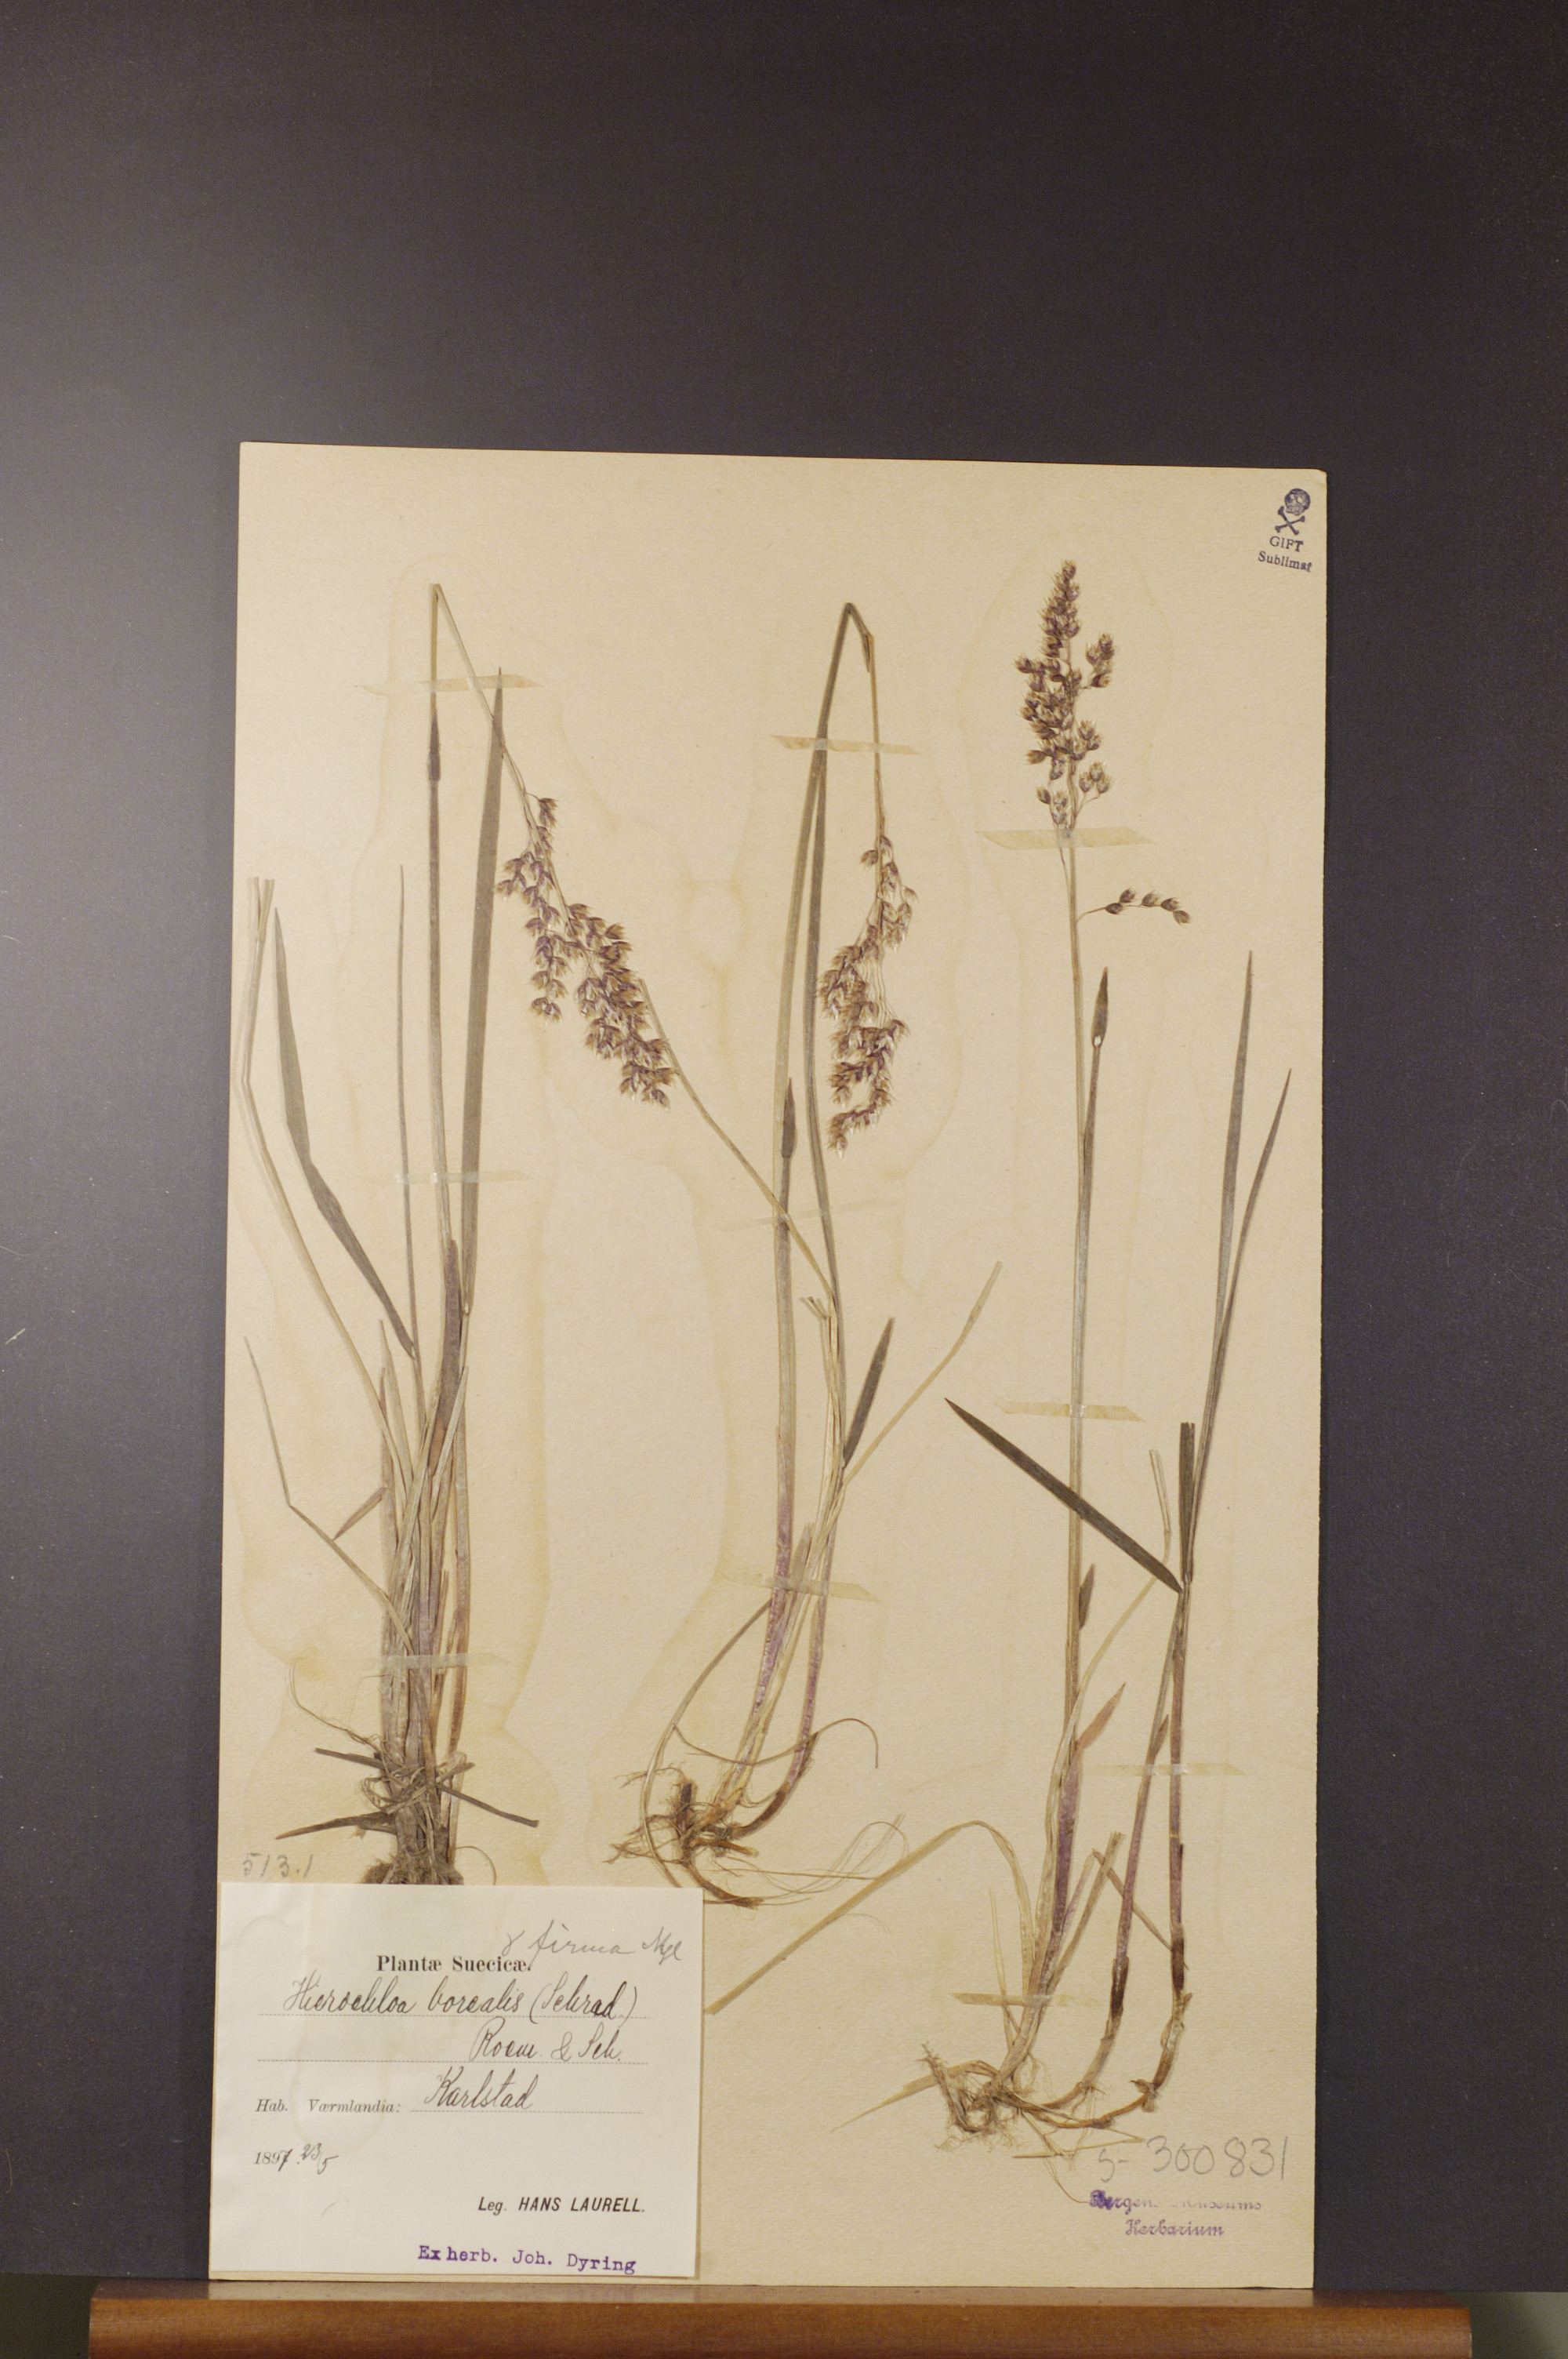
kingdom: Plantae
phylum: Tracheophyta
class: Liliopsida
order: Poales
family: Poaceae
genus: Anthoxanthum
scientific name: Anthoxanthum nitens
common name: Holy grass
